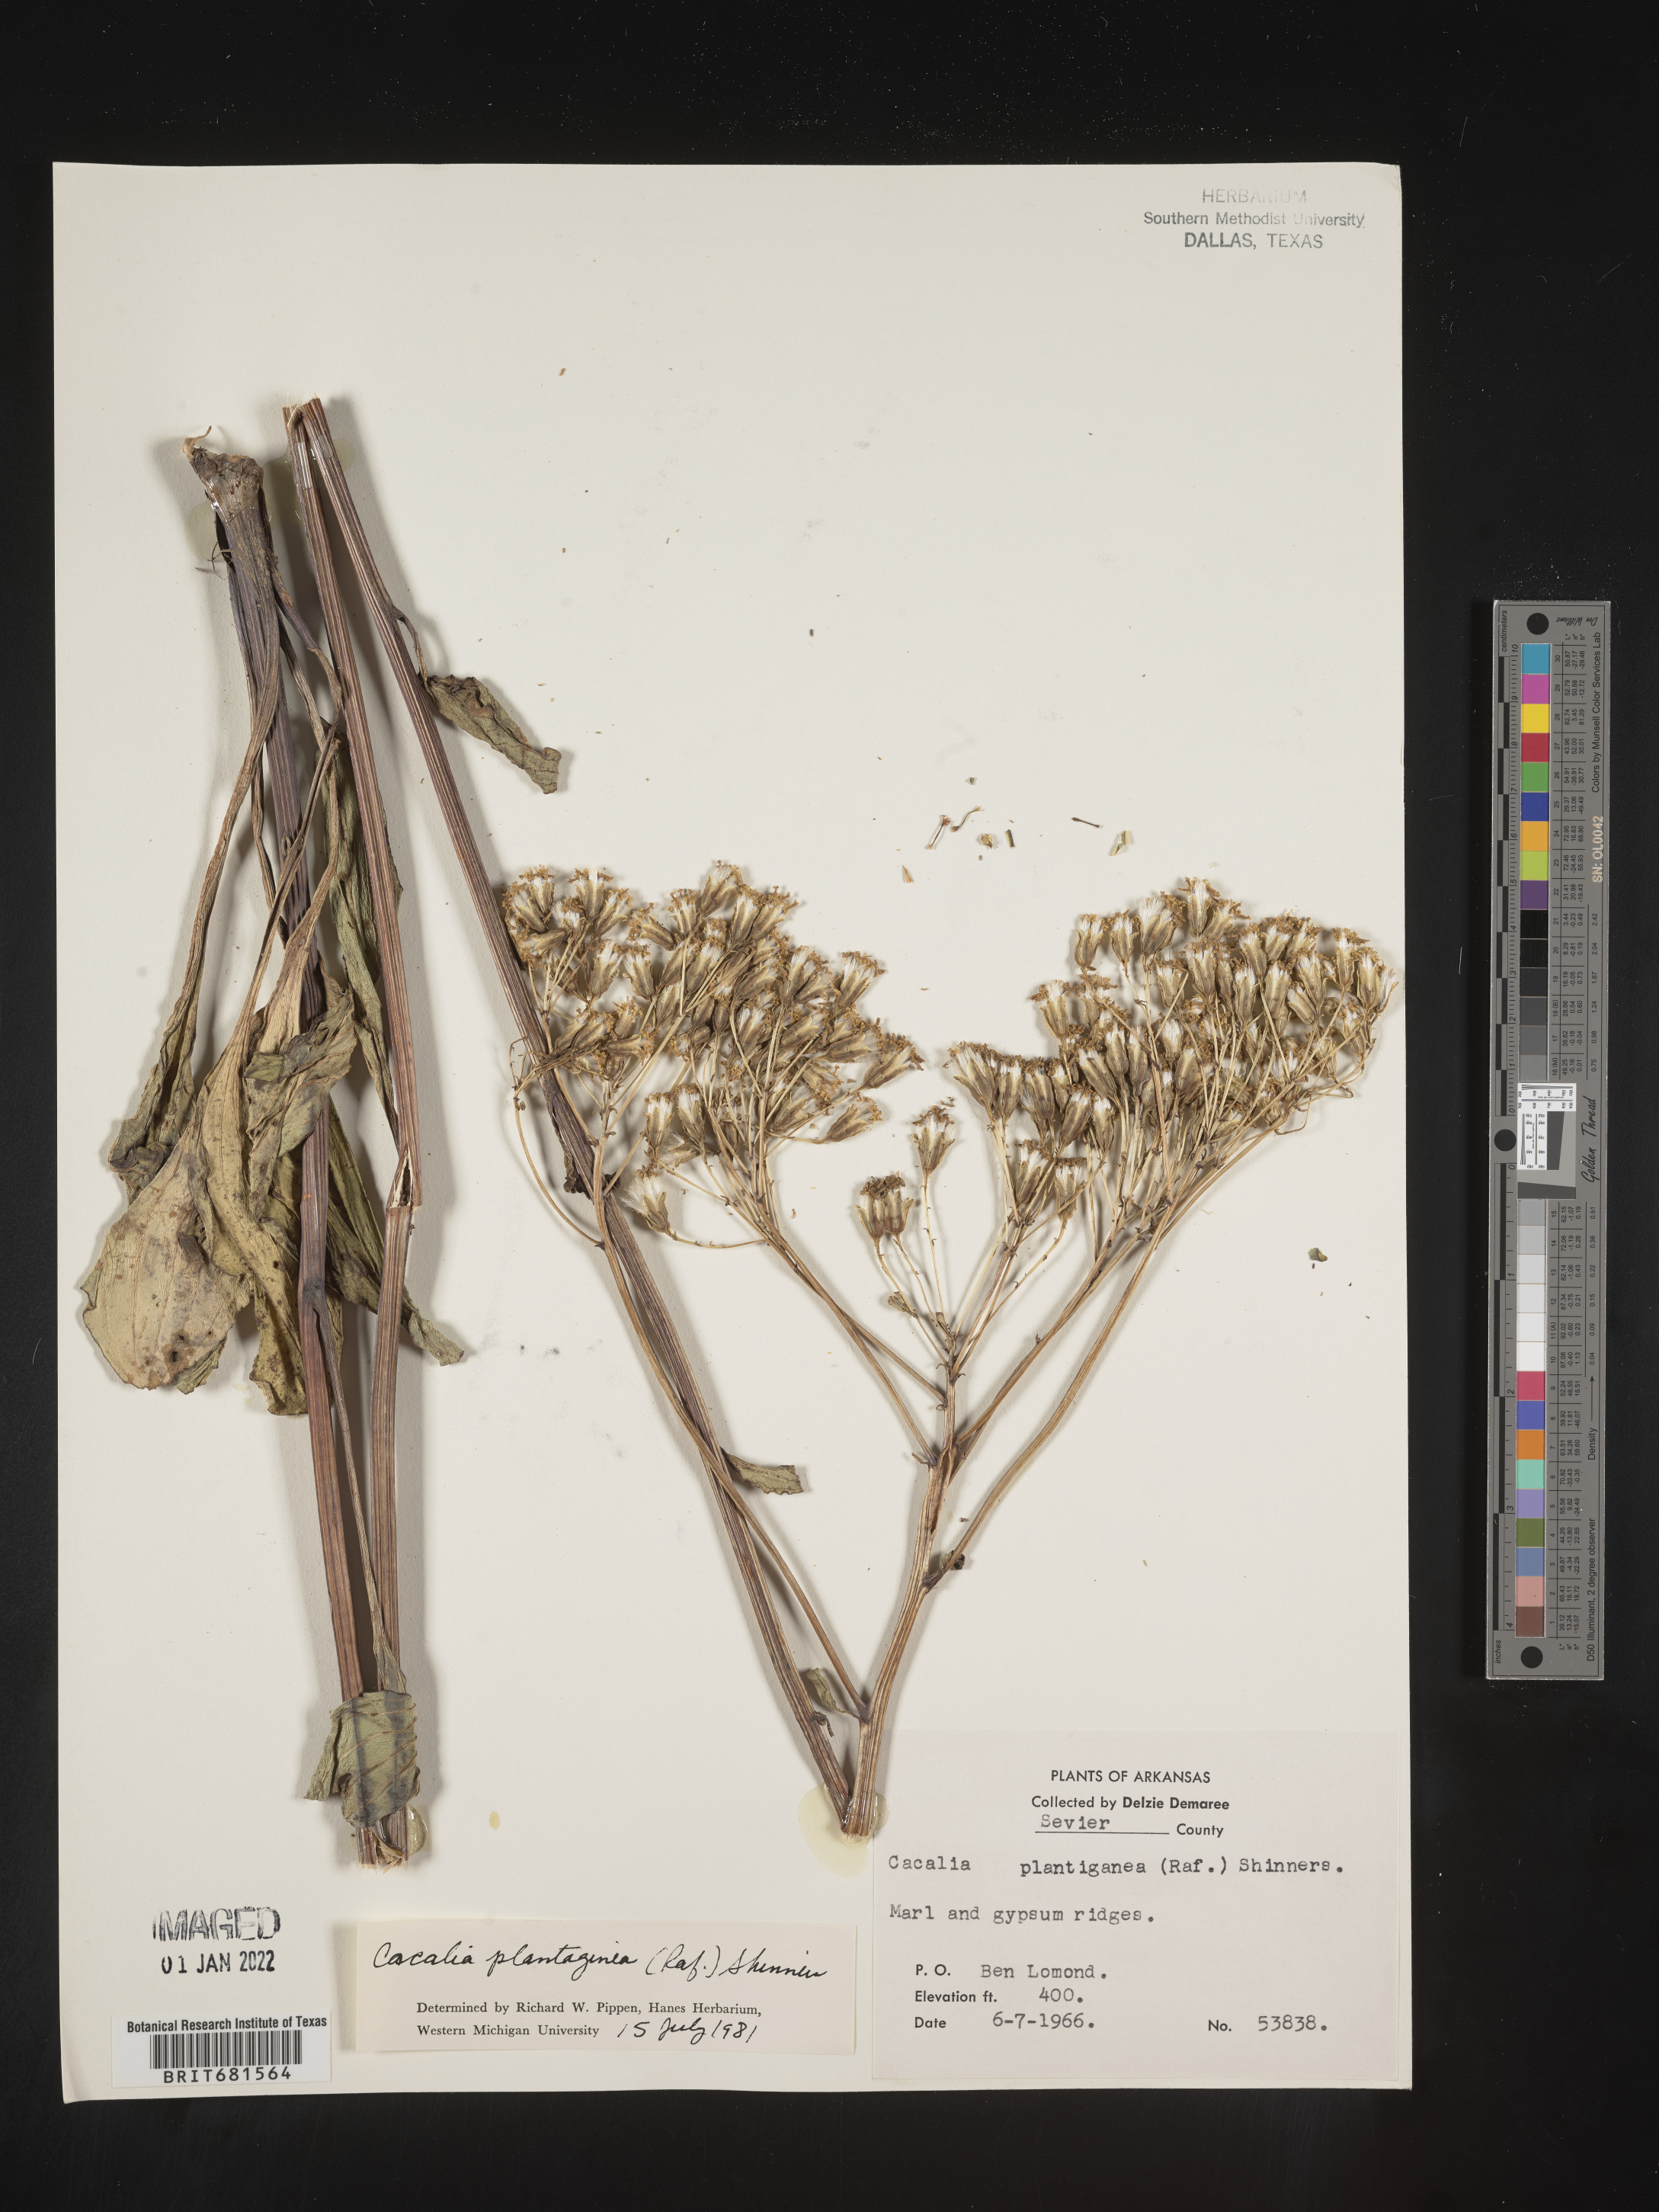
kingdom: Plantae
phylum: Tracheophyta
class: Magnoliopsida
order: Asterales
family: Asteraceae
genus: Arnoglossum
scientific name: Arnoglossum plantagineum
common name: Groove-stemmed indian-plantain
